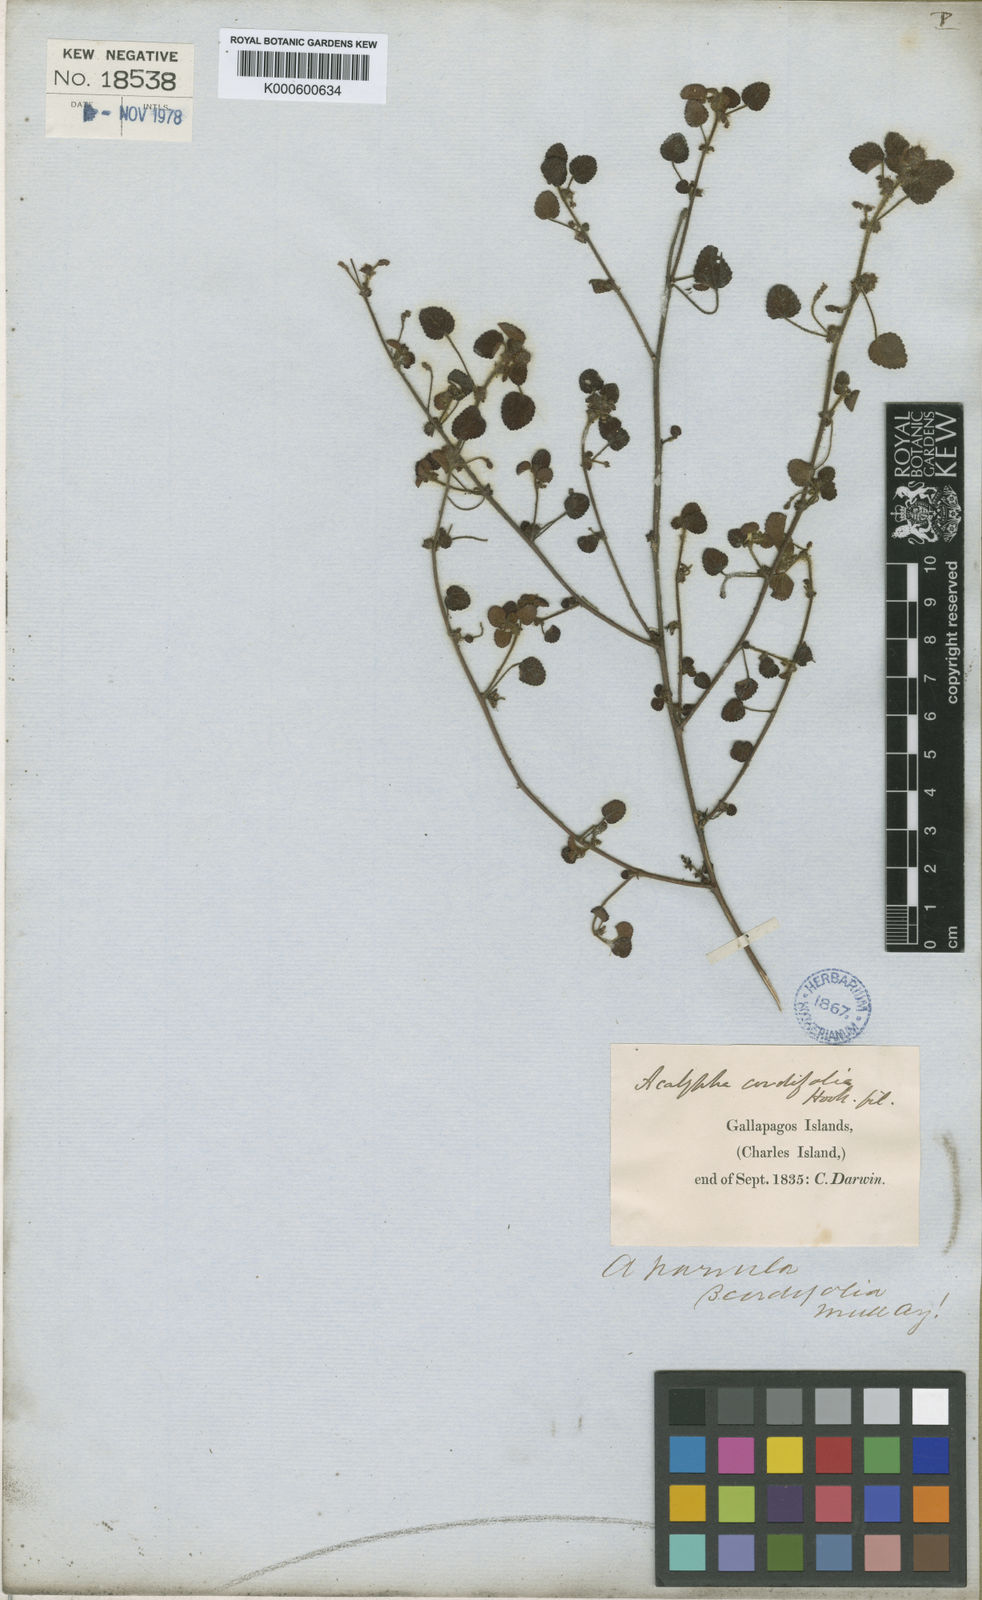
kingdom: Plantae
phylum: Tracheophyta
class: Magnoliopsida
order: Malpighiales
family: Euphorbiaceae
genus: Acalypha
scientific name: Acalypha parvula
